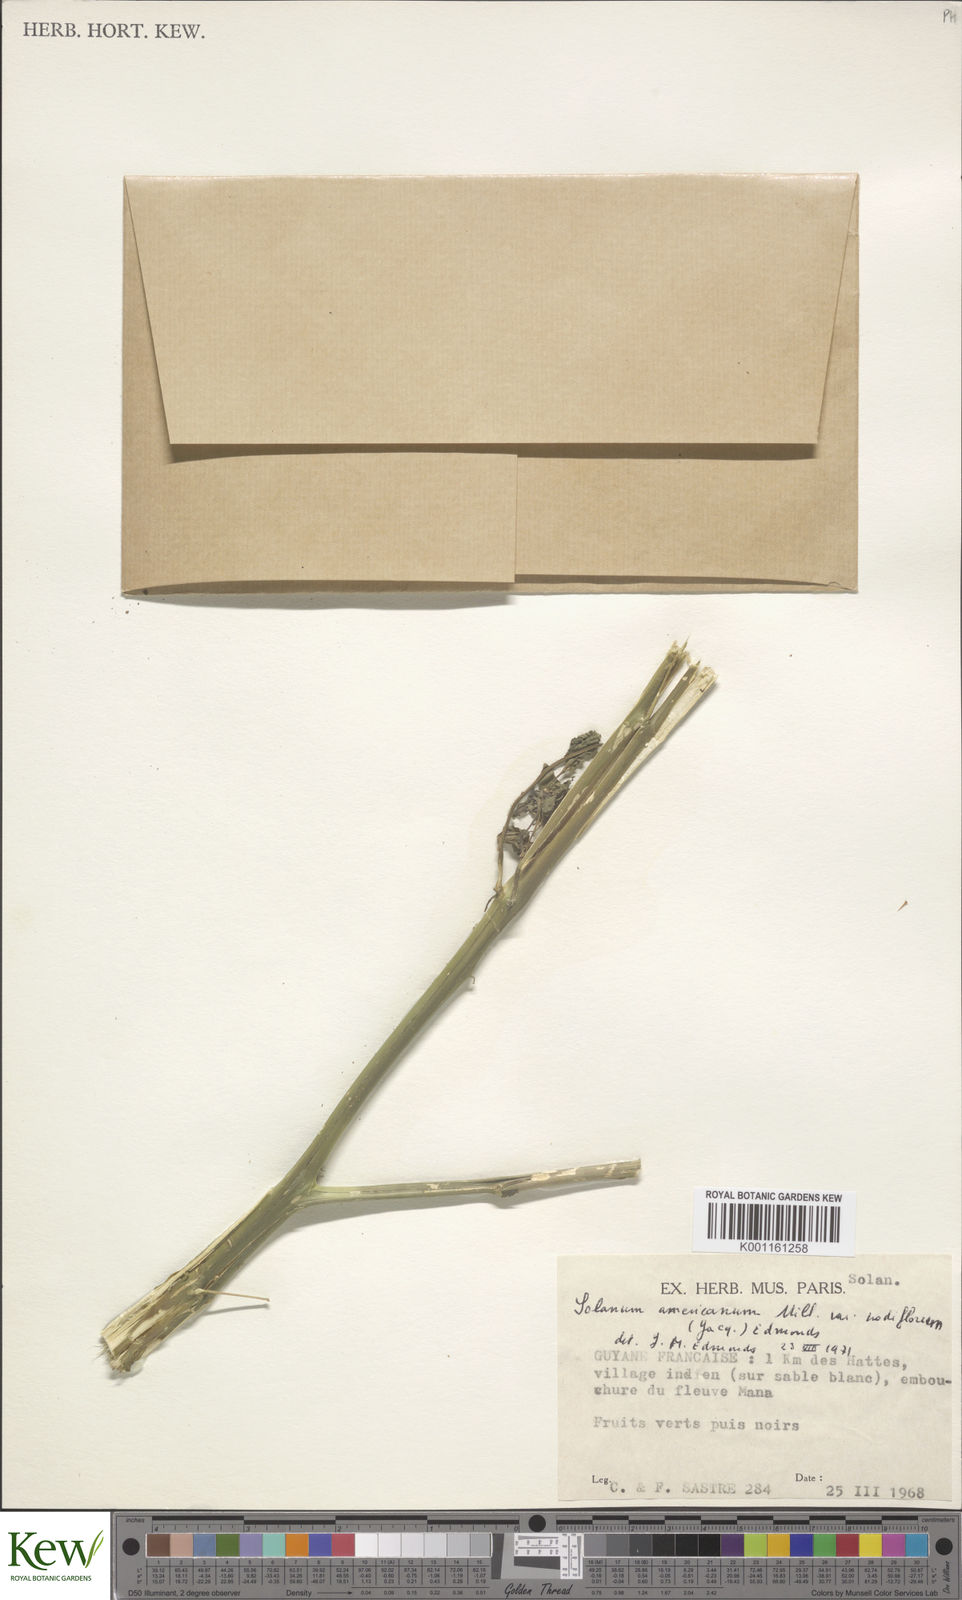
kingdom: Plantae
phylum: Tracheophyta
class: Magnoliopsida
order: Solanales
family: Solanaceae
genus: Solanum
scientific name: Solanum americanum
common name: American black nightshade
